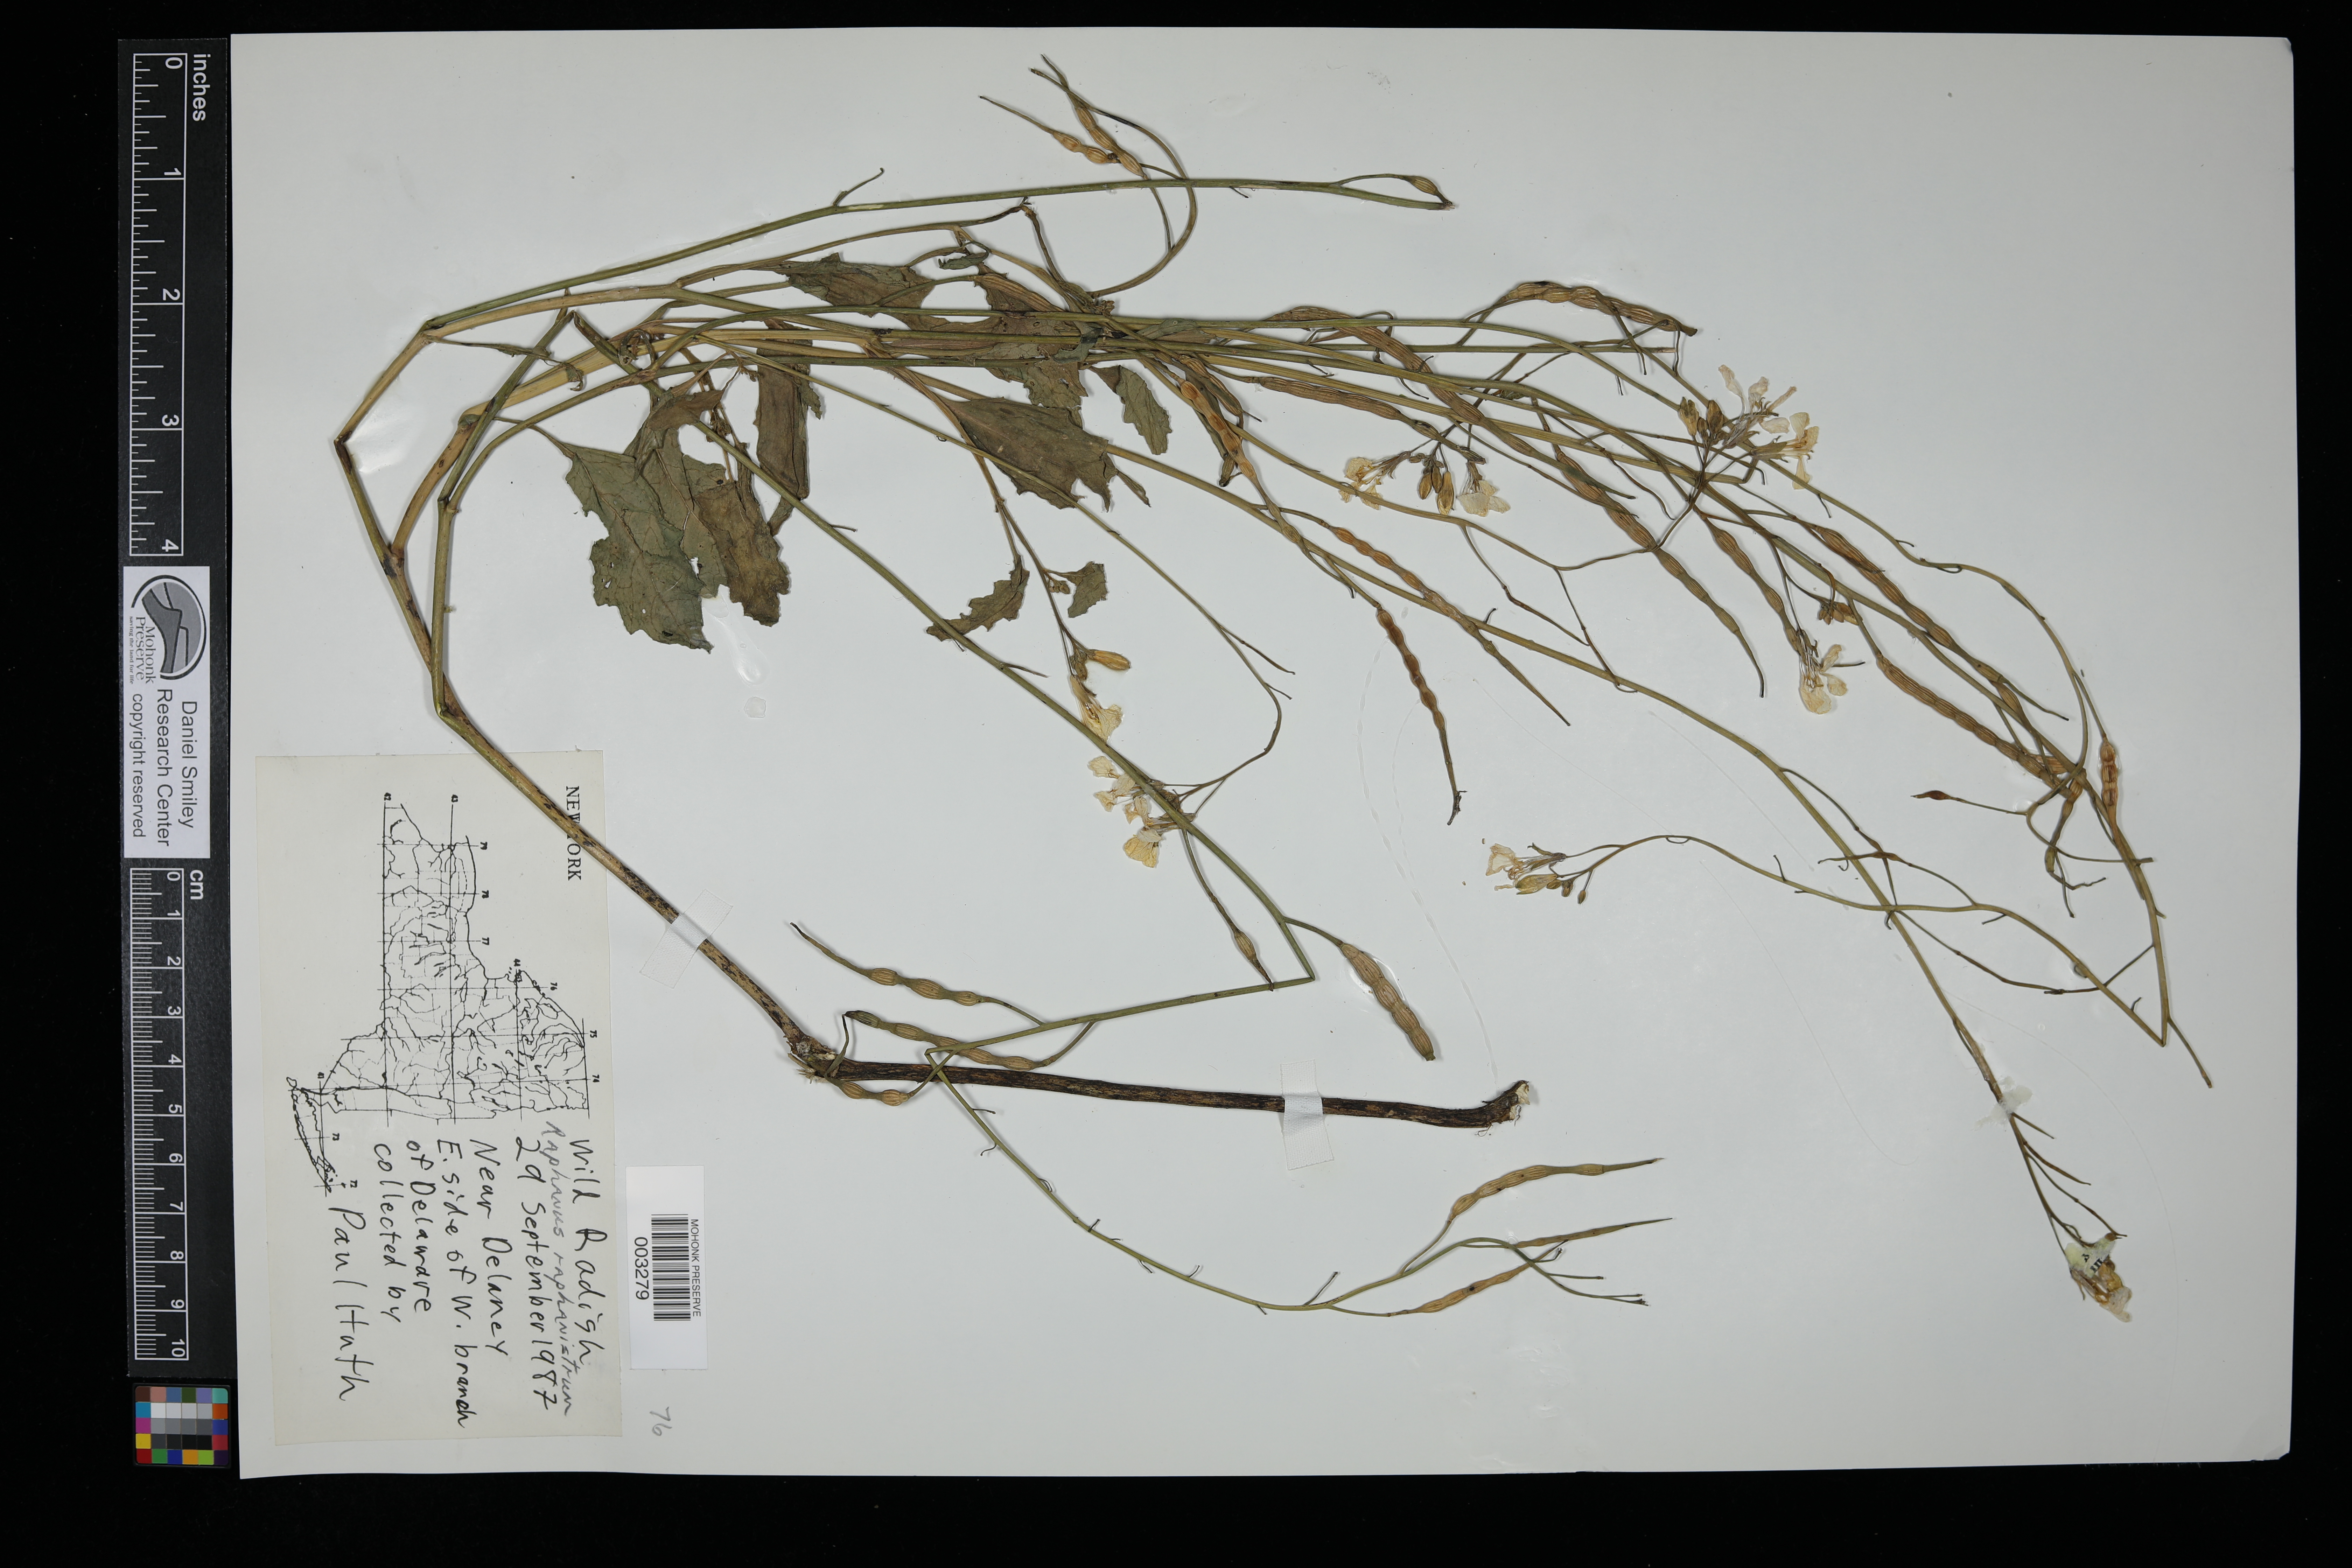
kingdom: Plantae
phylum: Tracheophyta
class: Magnoliopsida
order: Brassicales
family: Brassicaceae
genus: Raphanus
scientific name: Raphanus raphanistrum
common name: Wild radish
